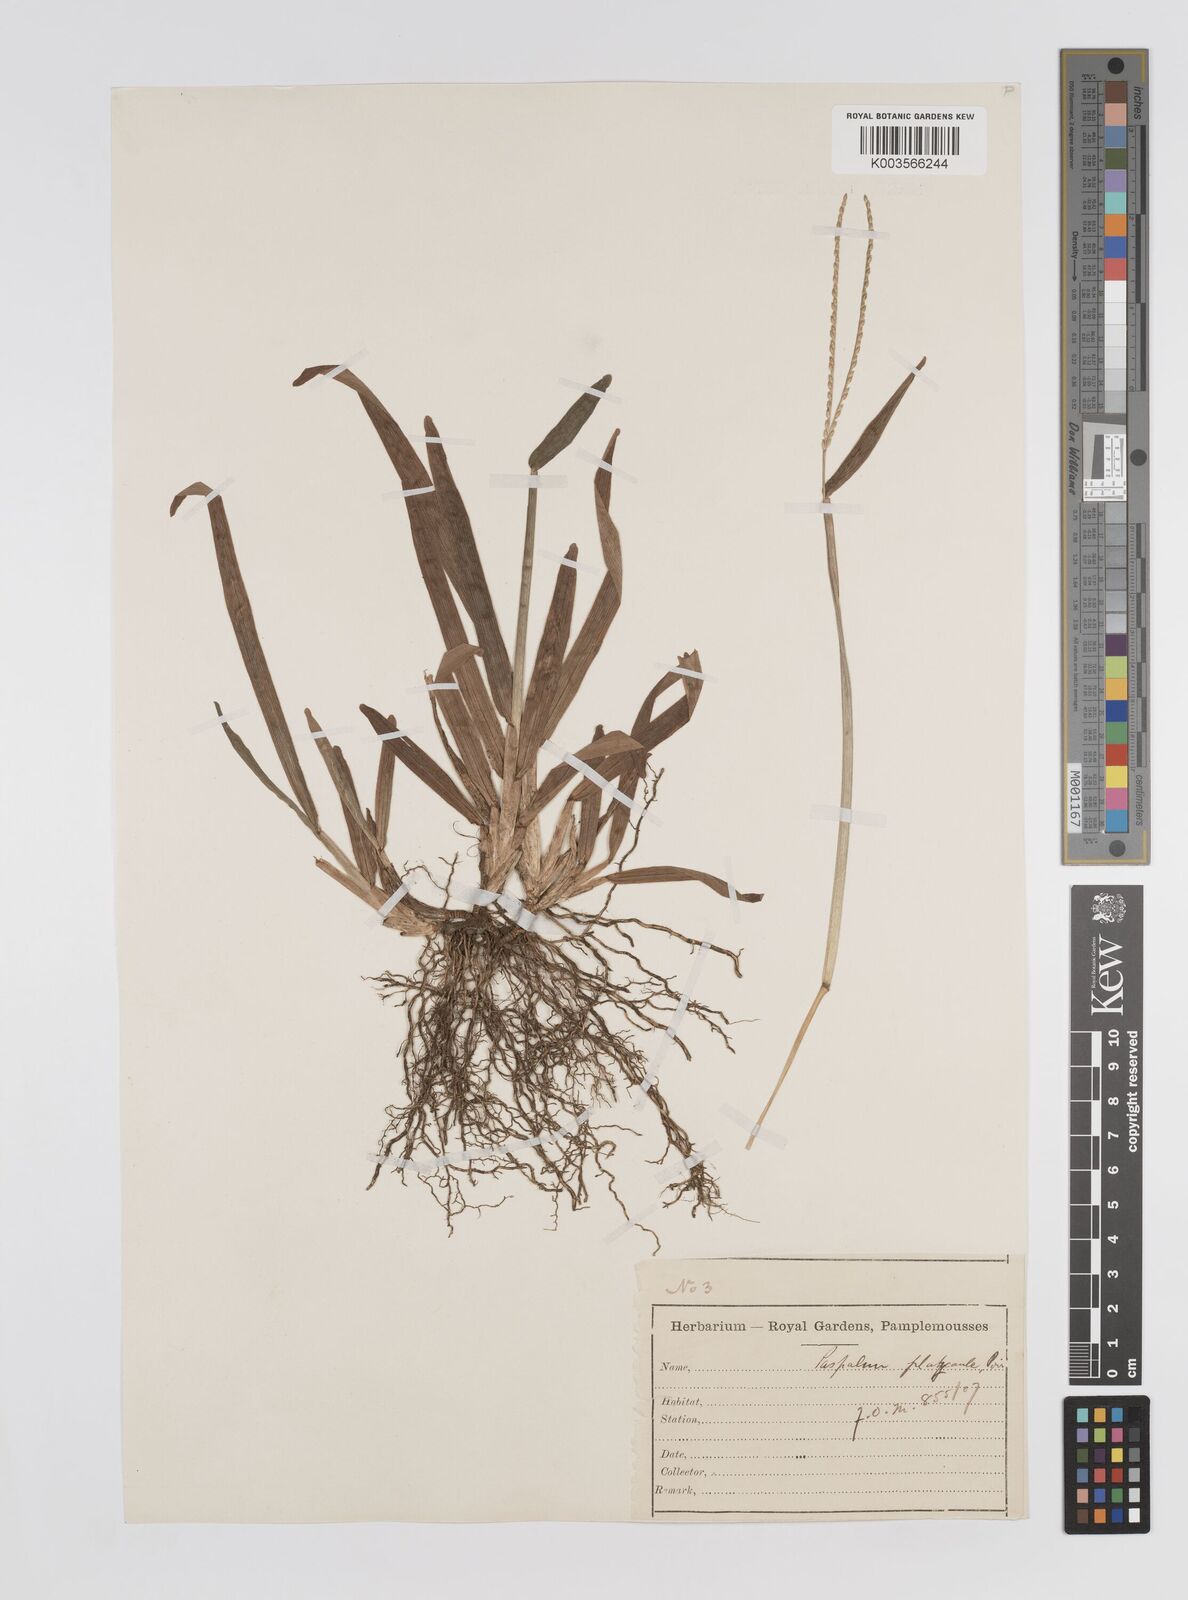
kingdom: Plantae
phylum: Tracheophyta
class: Liliopsida
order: Poales
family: Poaceae
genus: Axonopus
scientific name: Axonopus compressus
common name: American carpet grass
